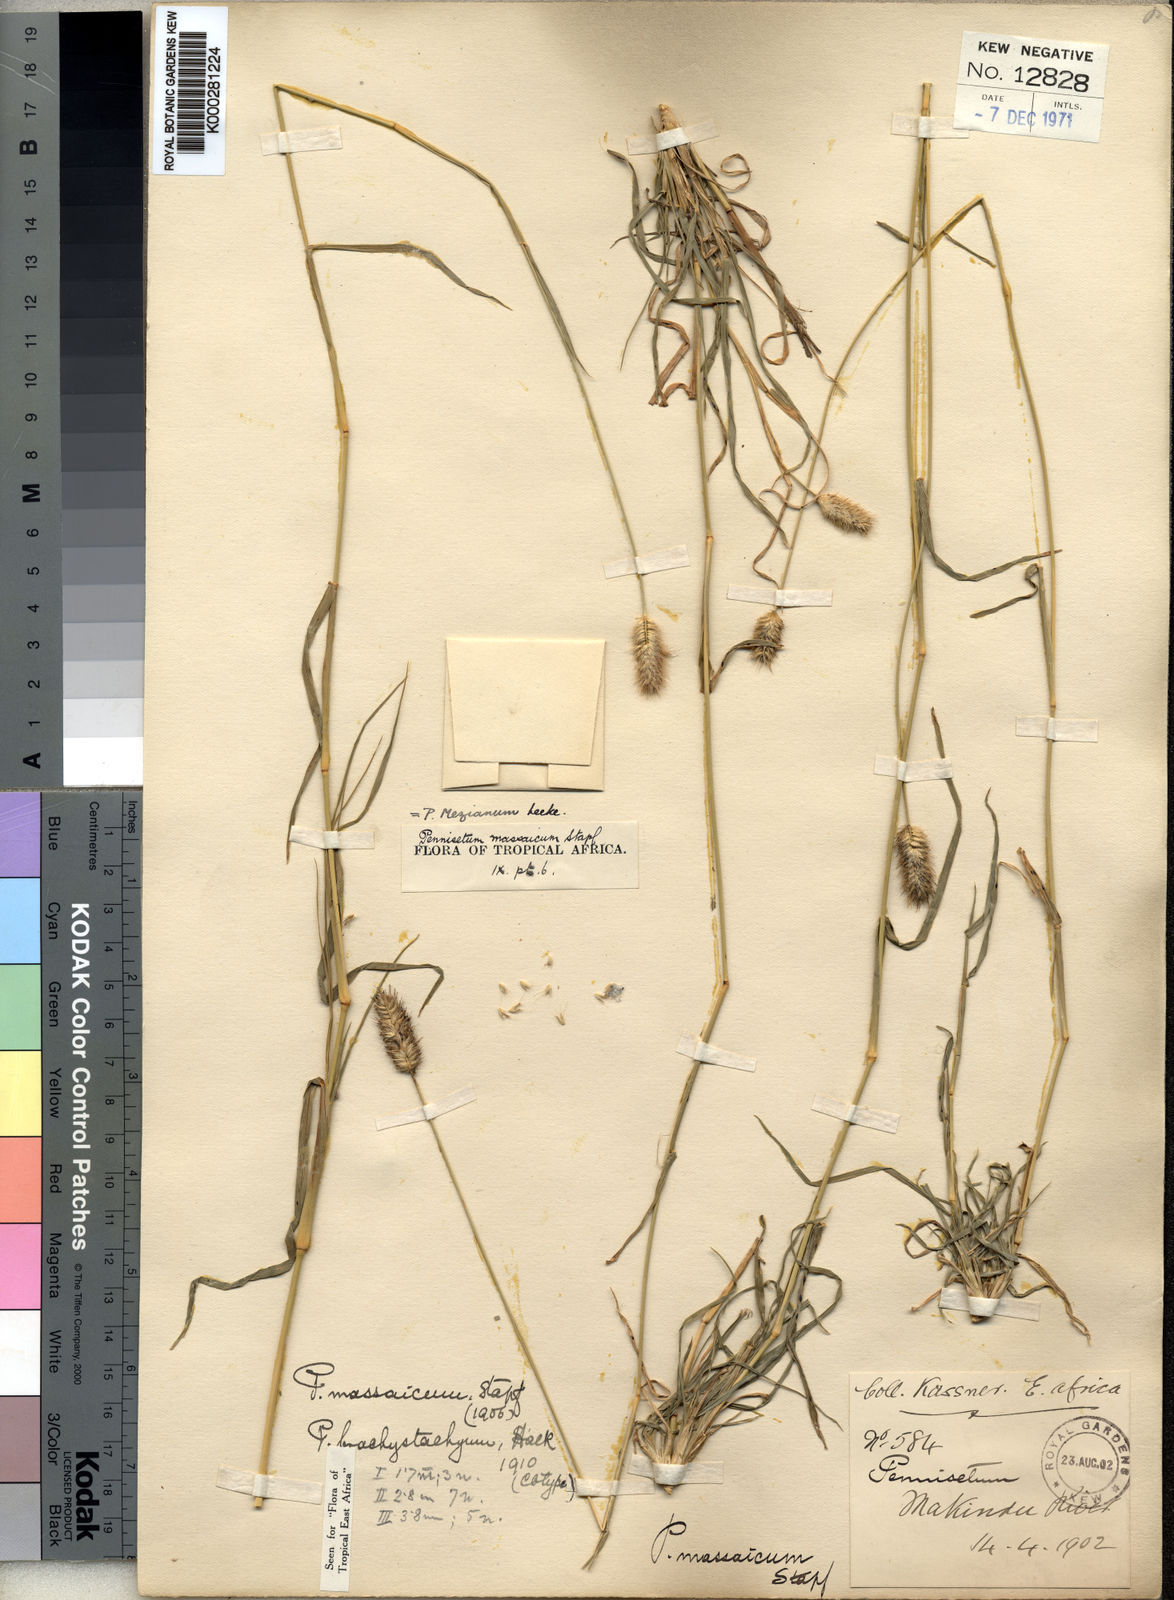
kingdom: Plantae
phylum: Tracheophyta
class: Liliopsida
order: Poales
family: Poaceae
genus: Cenchrus
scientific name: Cenchrus mezianus
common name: Bamboo grass
